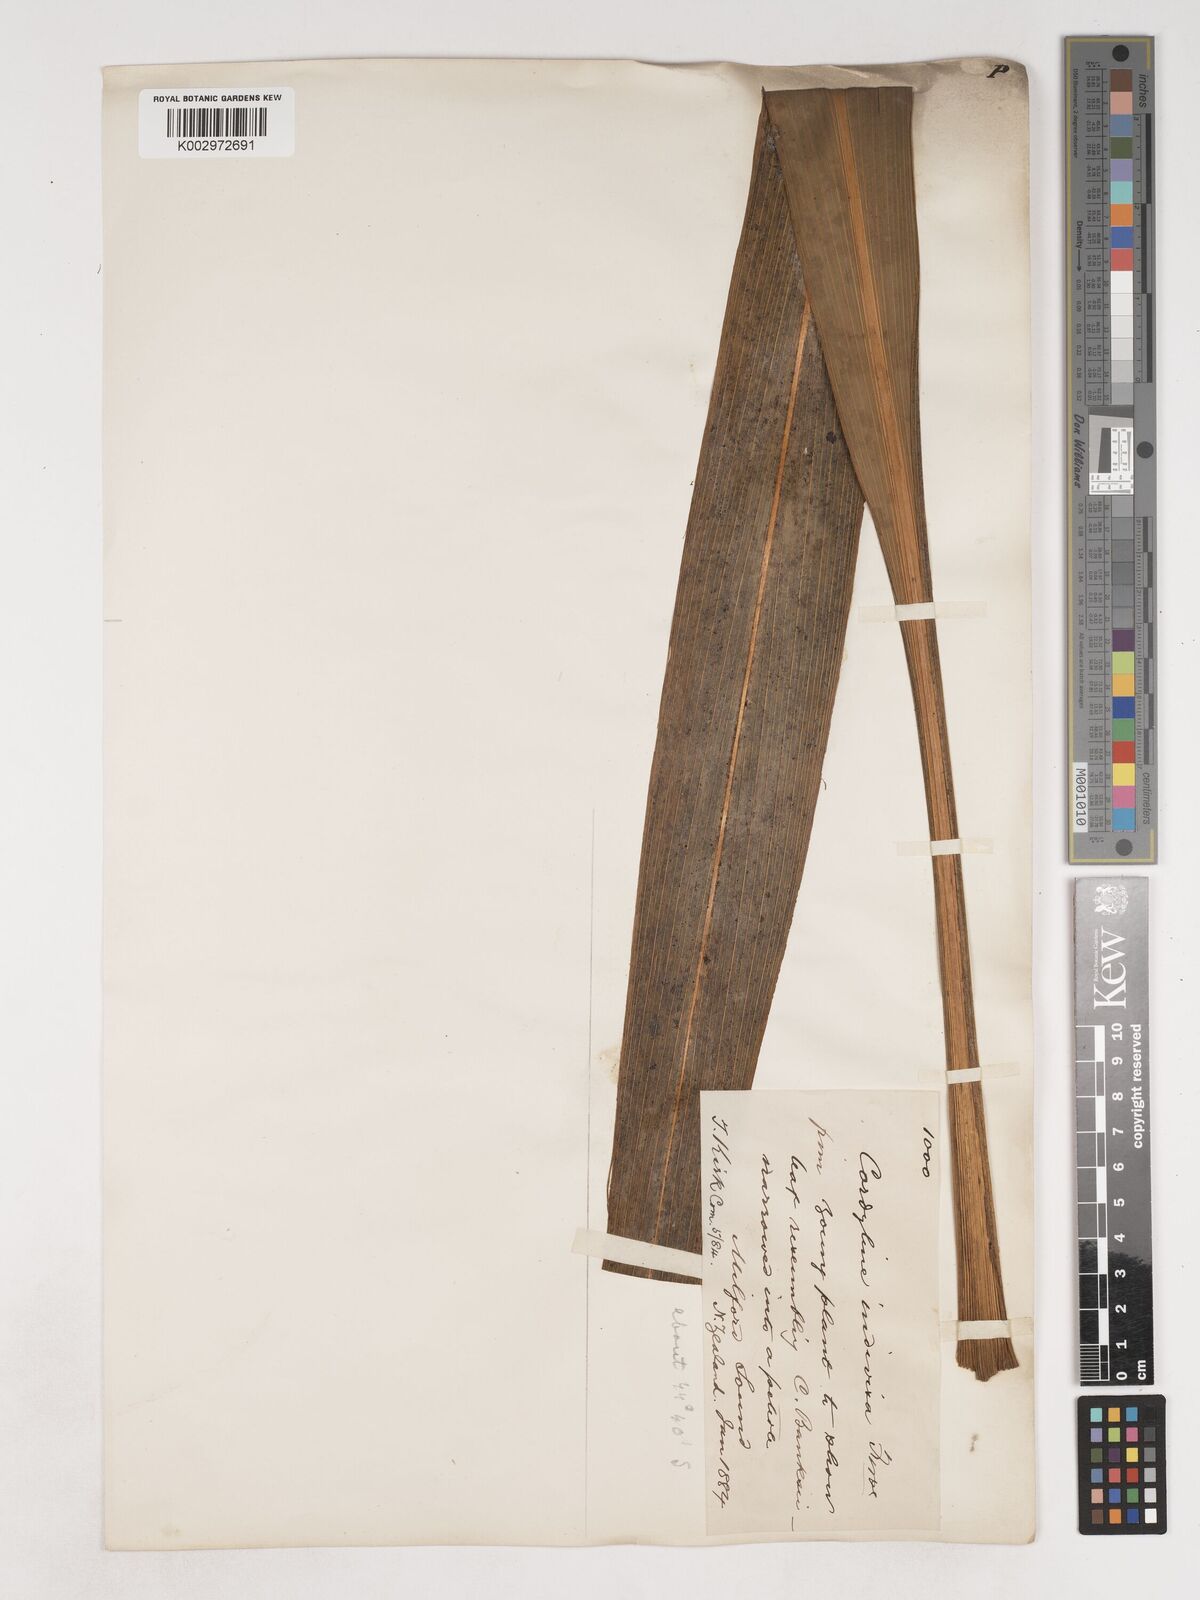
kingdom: Plantae
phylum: Tracheophyta
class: Liliopsida
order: Asparagales
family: Asparagaceae
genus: Cordyline
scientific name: Cordyline
